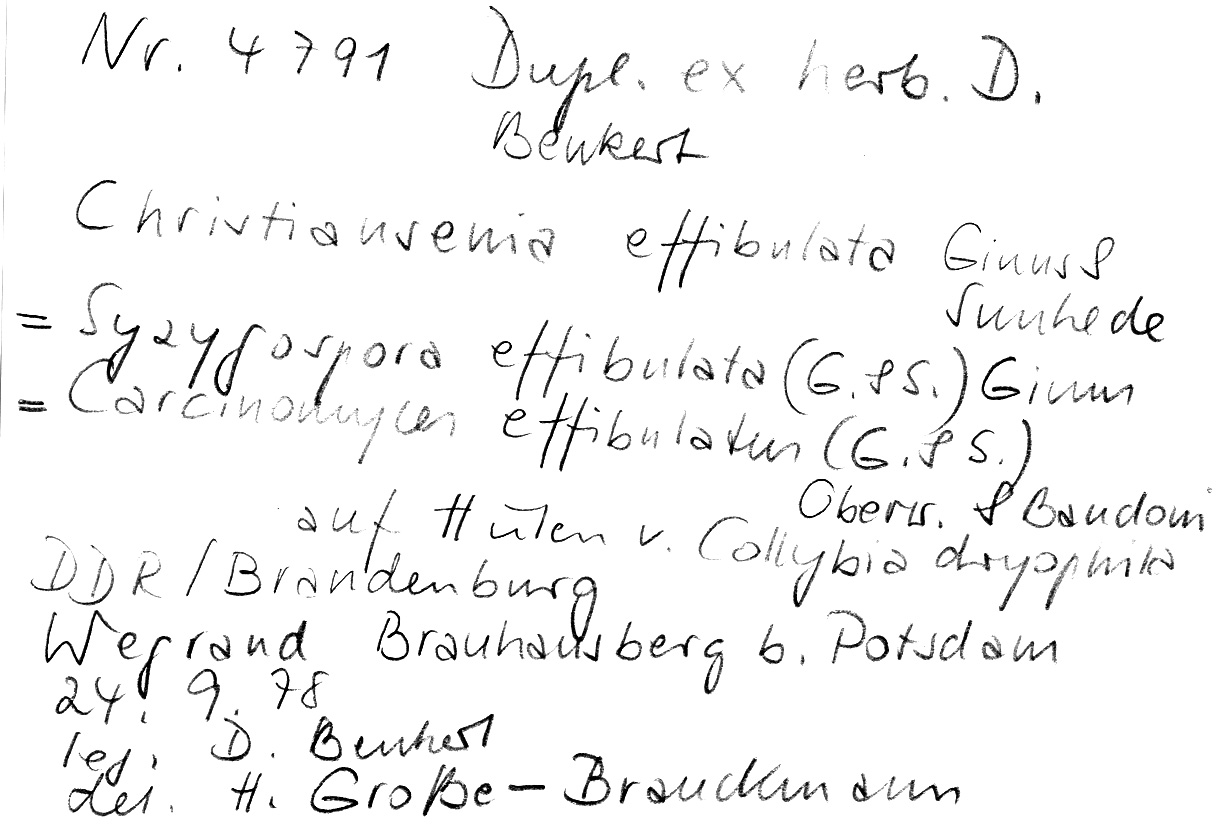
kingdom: Fungi
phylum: Basidiomycota
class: Agaricomycetes
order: Agaricales
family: Omphalotaceae
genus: Gymnopus
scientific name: Gymnopus dryophilus
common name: Penny top
